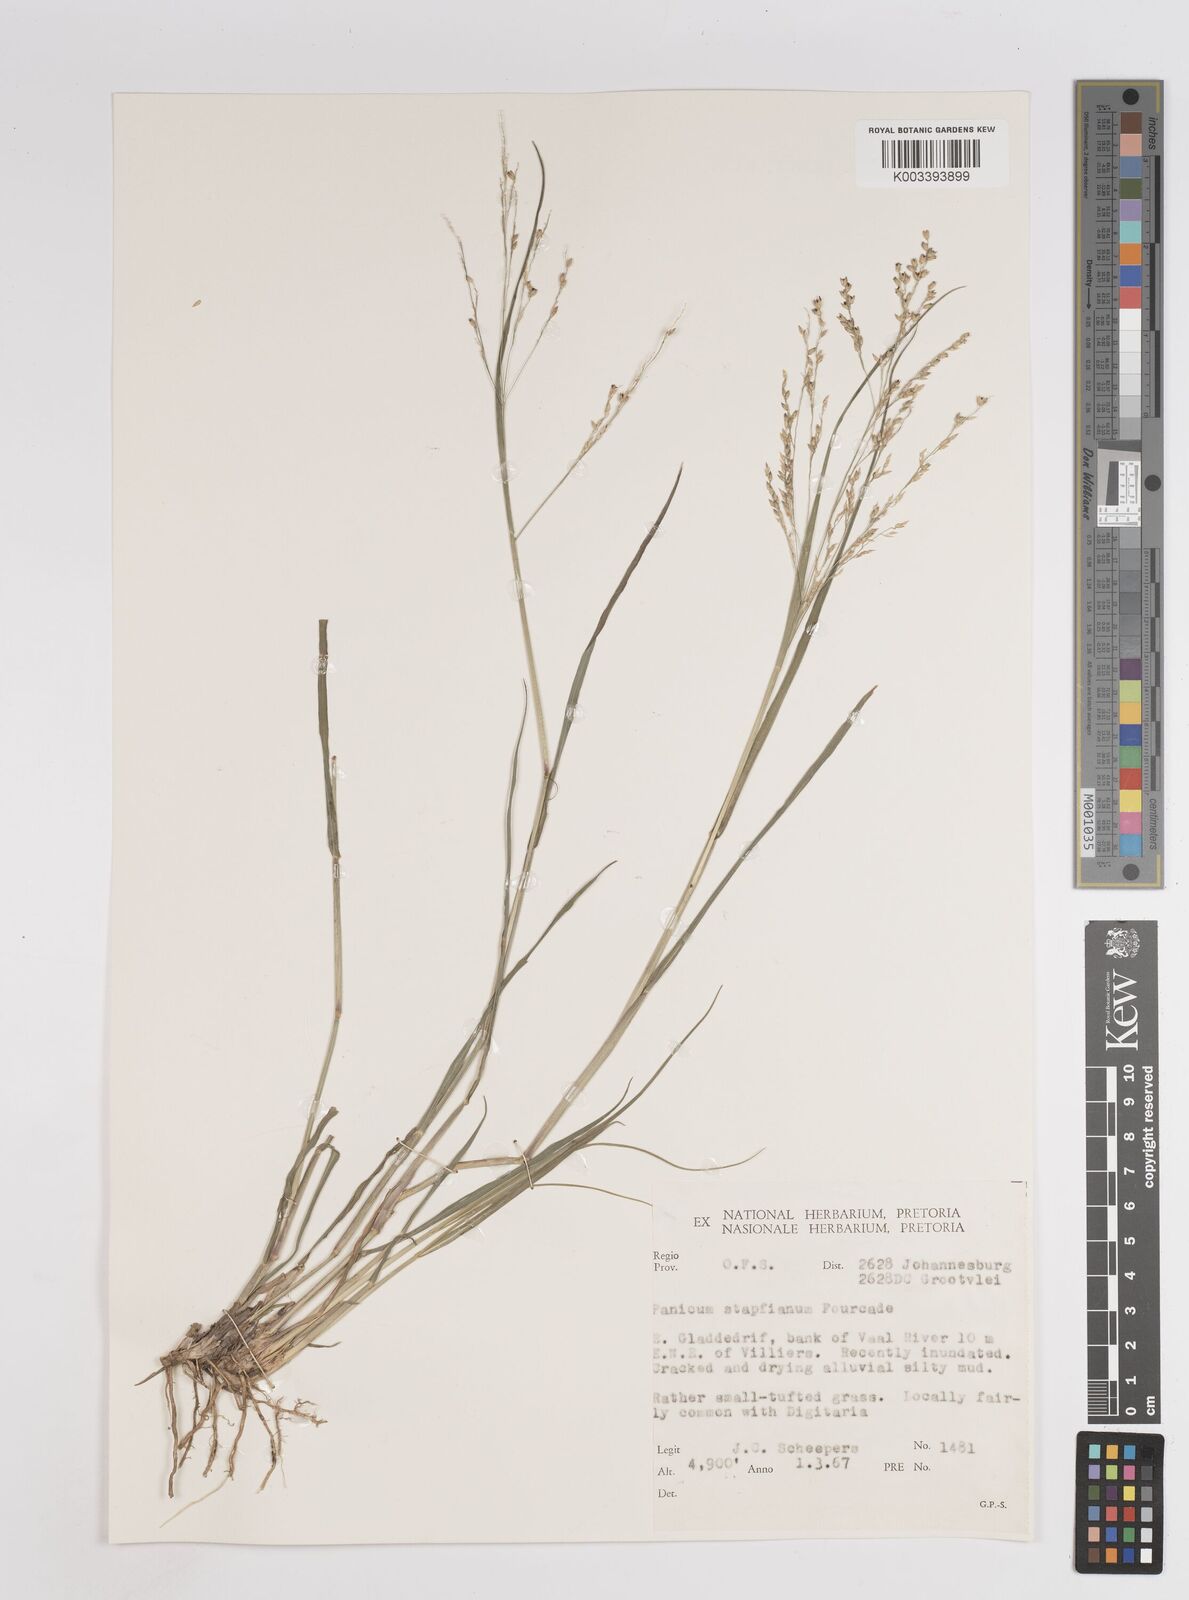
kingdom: Plantae
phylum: Tracheophyta
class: Liliopsida
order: Poales
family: Poaceae
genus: Panicum
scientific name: Panicum stapfianum
